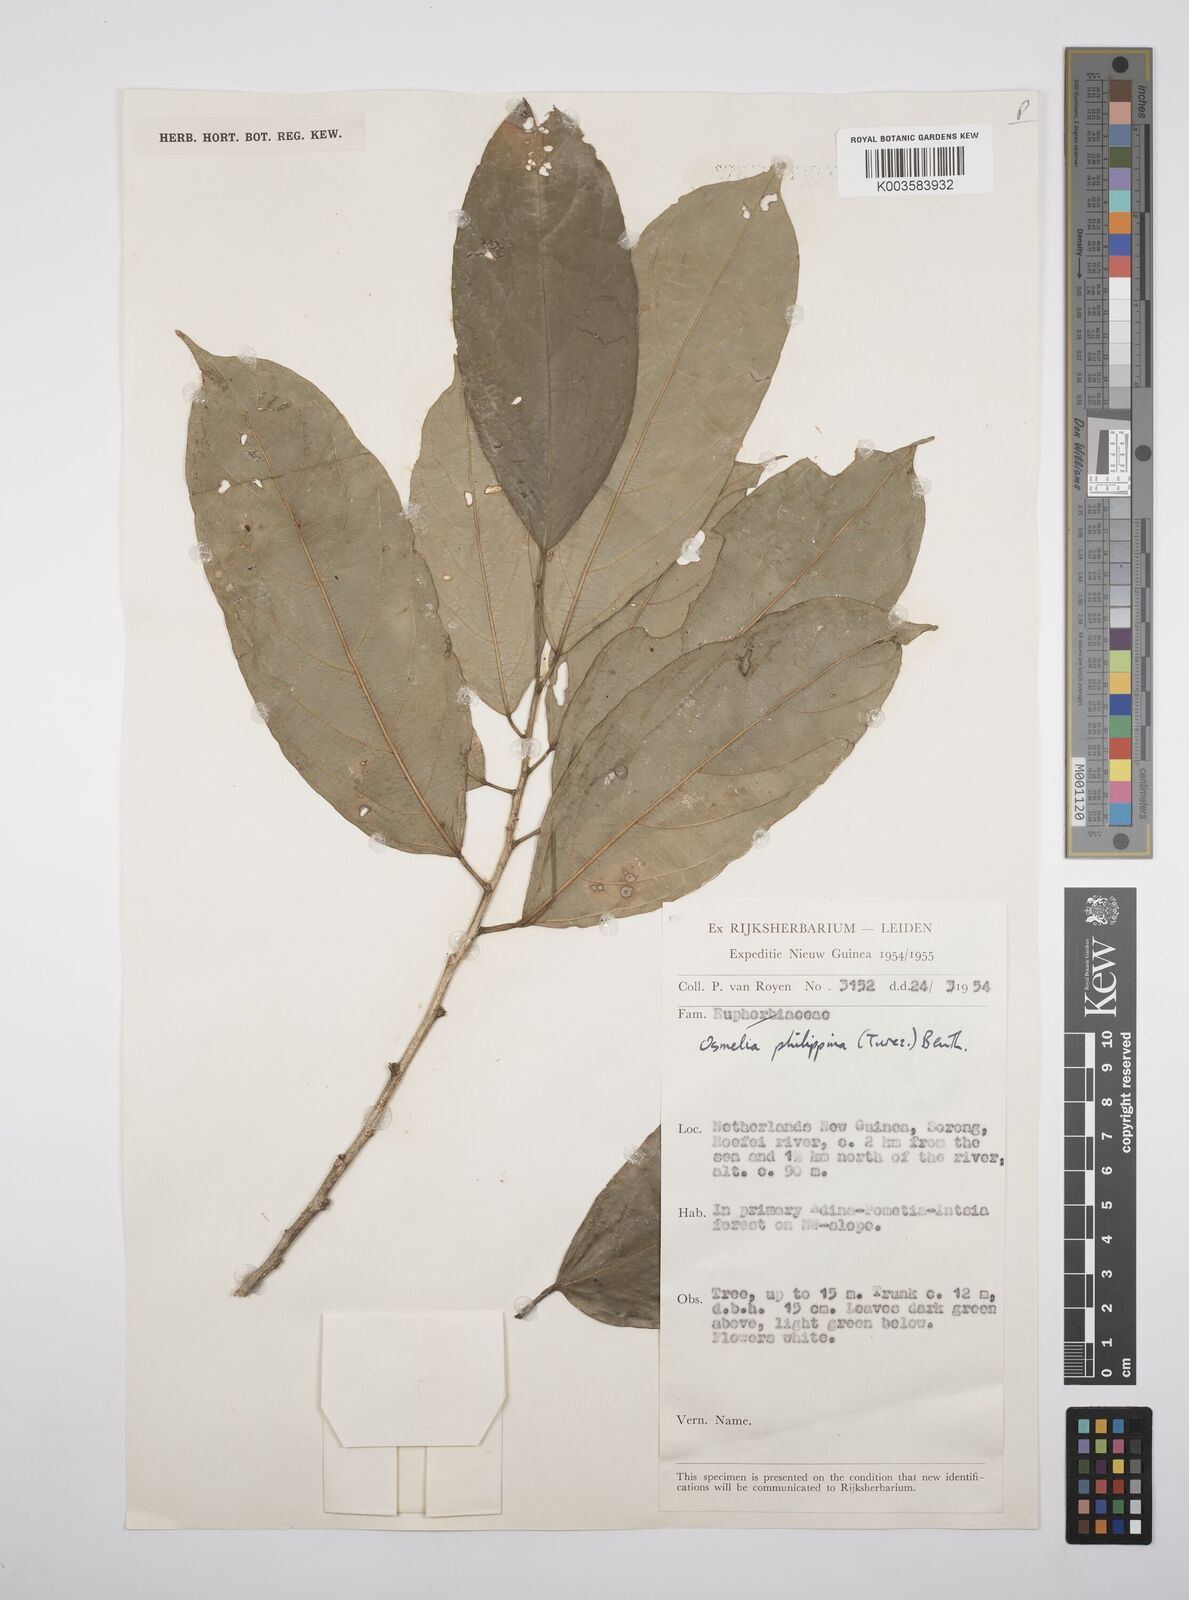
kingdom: Plantae
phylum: Tracheophyta
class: Magnoliopsida
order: Malpighiales
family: Salicaceae
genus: Osmelia
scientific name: Osmelia philippina
